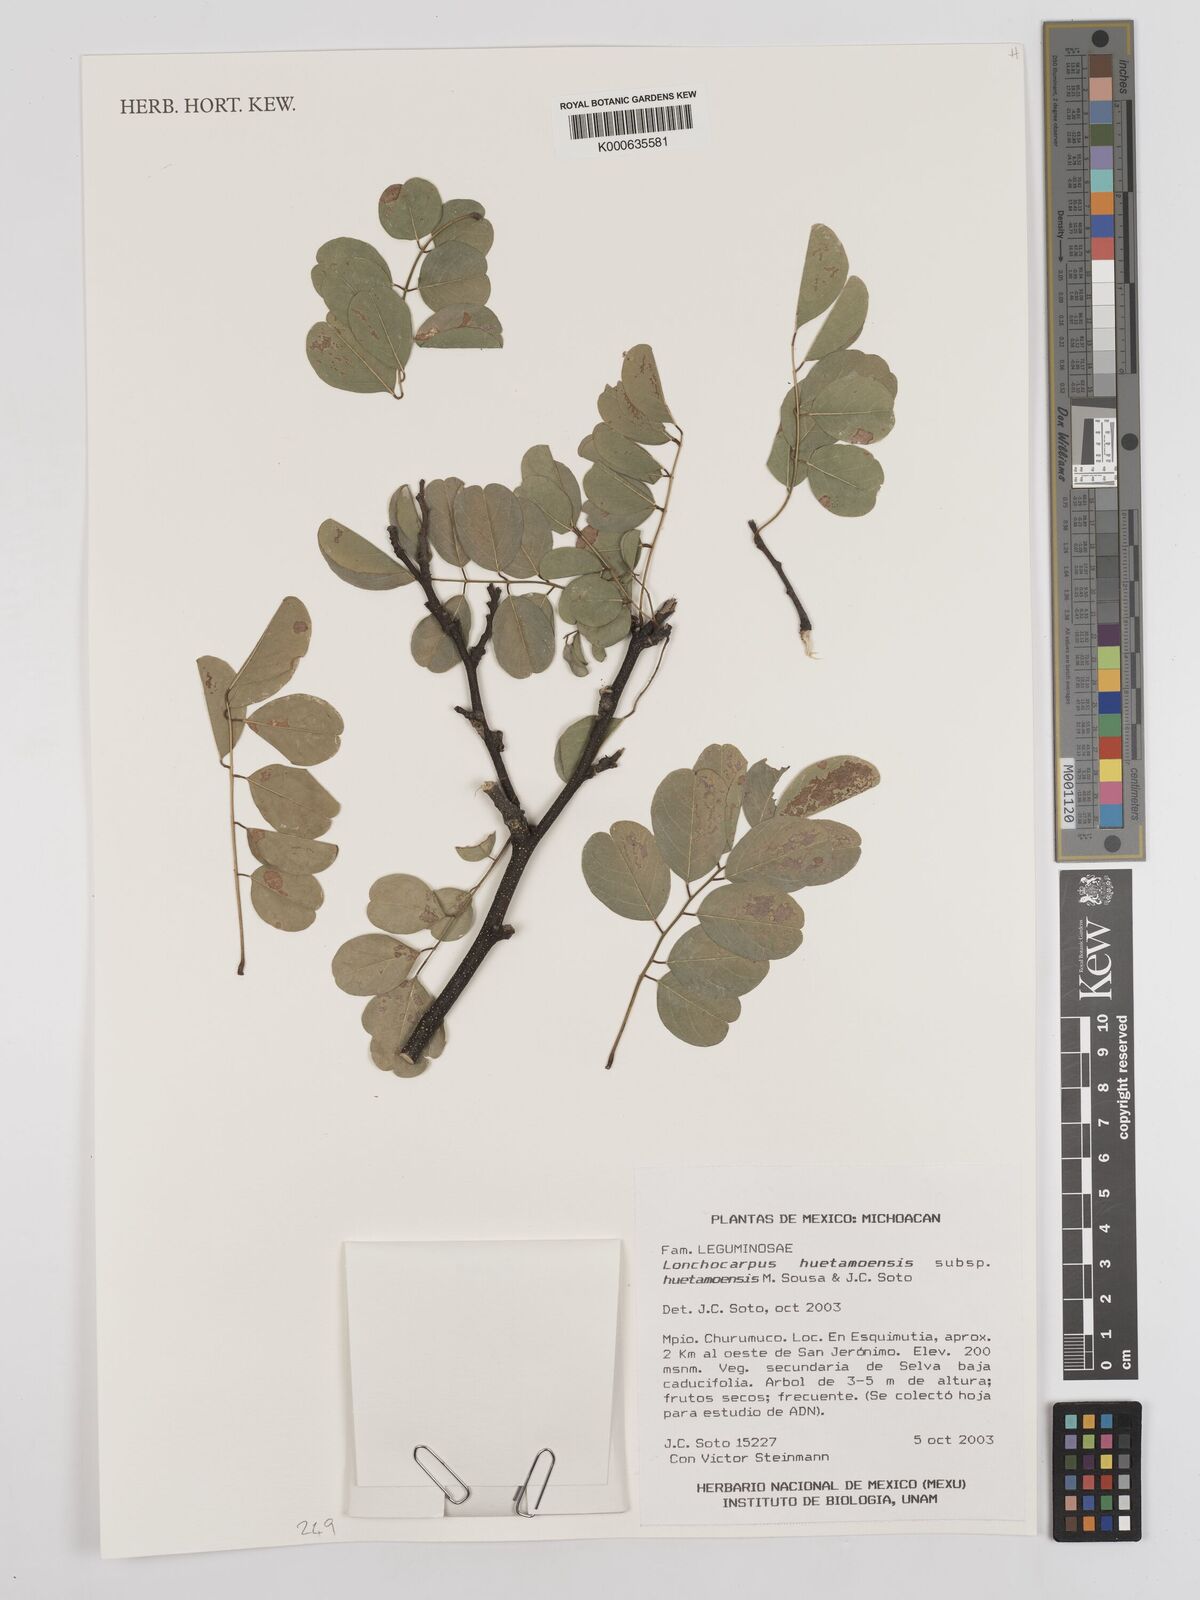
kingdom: Plantae
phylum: Tracheophyta
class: Magnoliopsida
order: Fabales
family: Fabaceae
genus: Lonchocarpus
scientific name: Lonchocarpus huetamoensis
